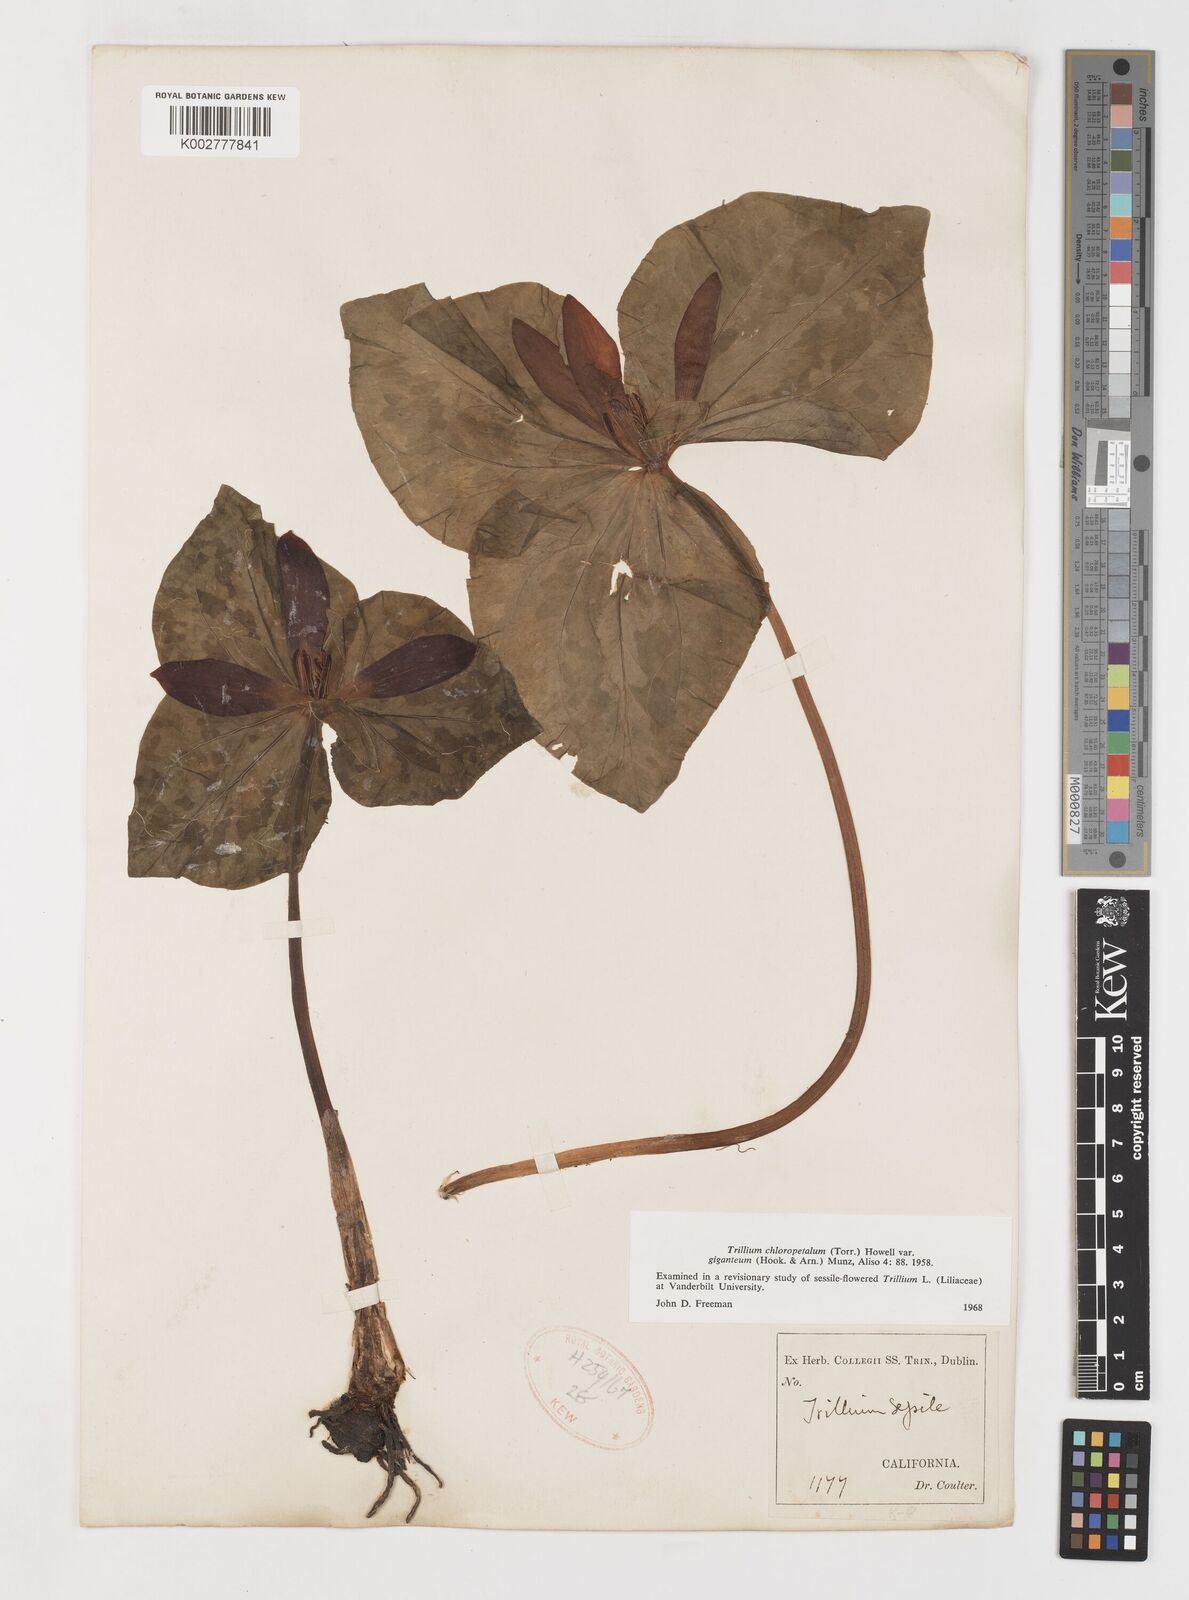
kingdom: Plantae
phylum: Tracheophyta
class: Liliopsida
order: Liliales
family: Melanthiaceae
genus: Trillium
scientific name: Trillium chloropetalum
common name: Giant trillium
